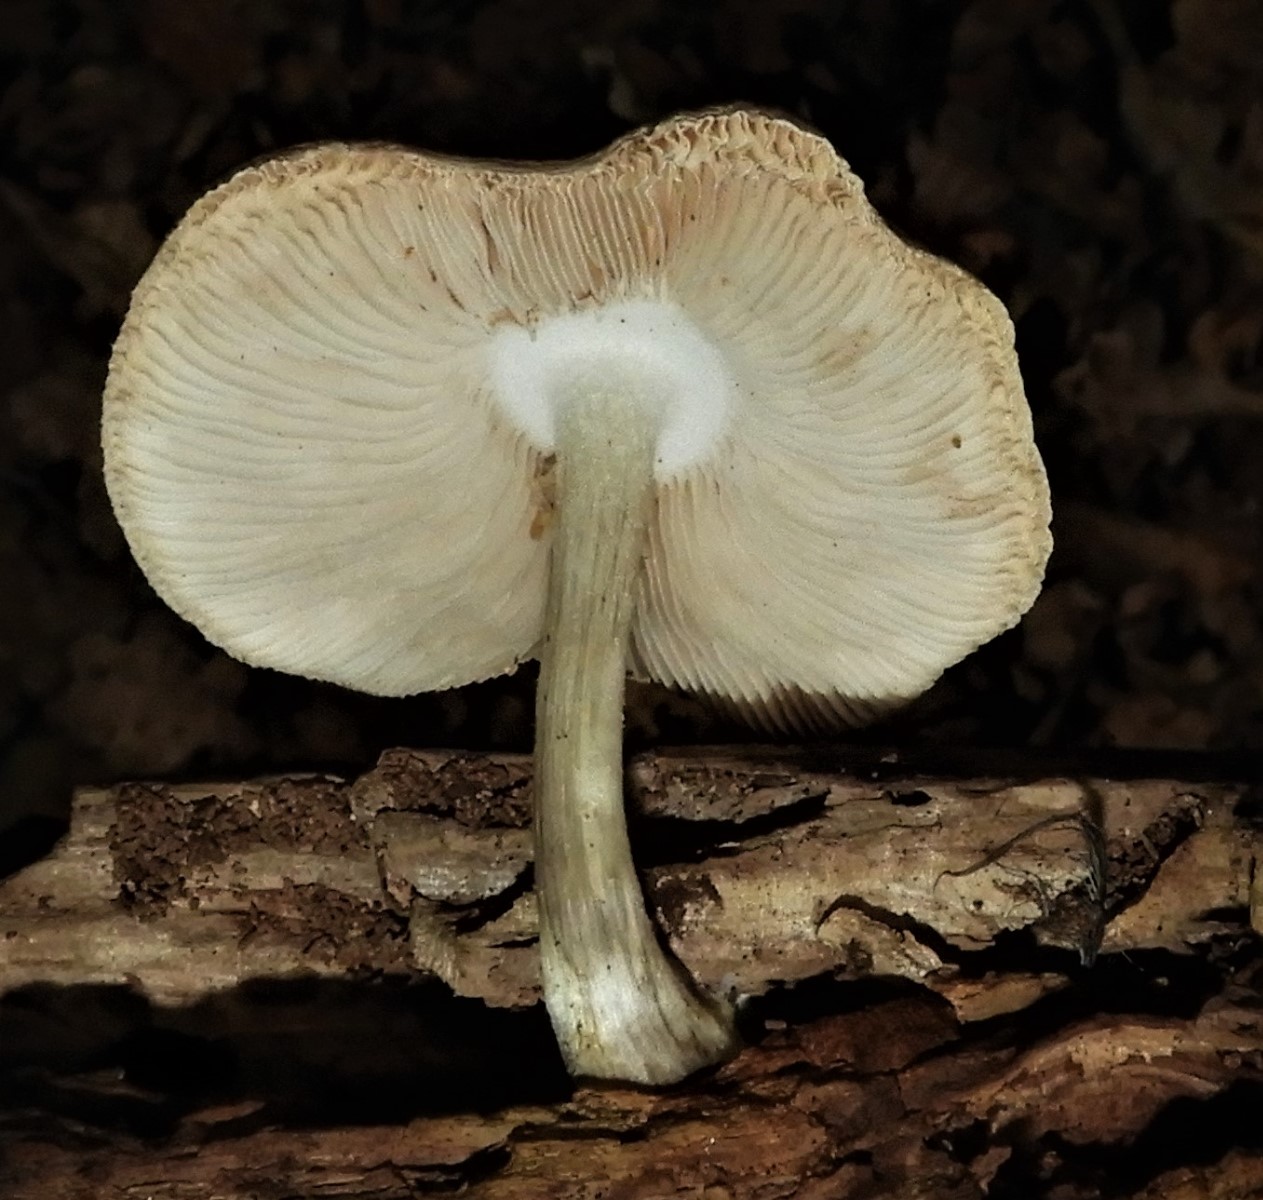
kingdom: Fungi
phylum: Basidiomycota
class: Agaricomycetes
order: Agaricales
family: Pluteaceae
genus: Pluteus
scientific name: Pluteus cervinus
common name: sodfarvet skærmhat
